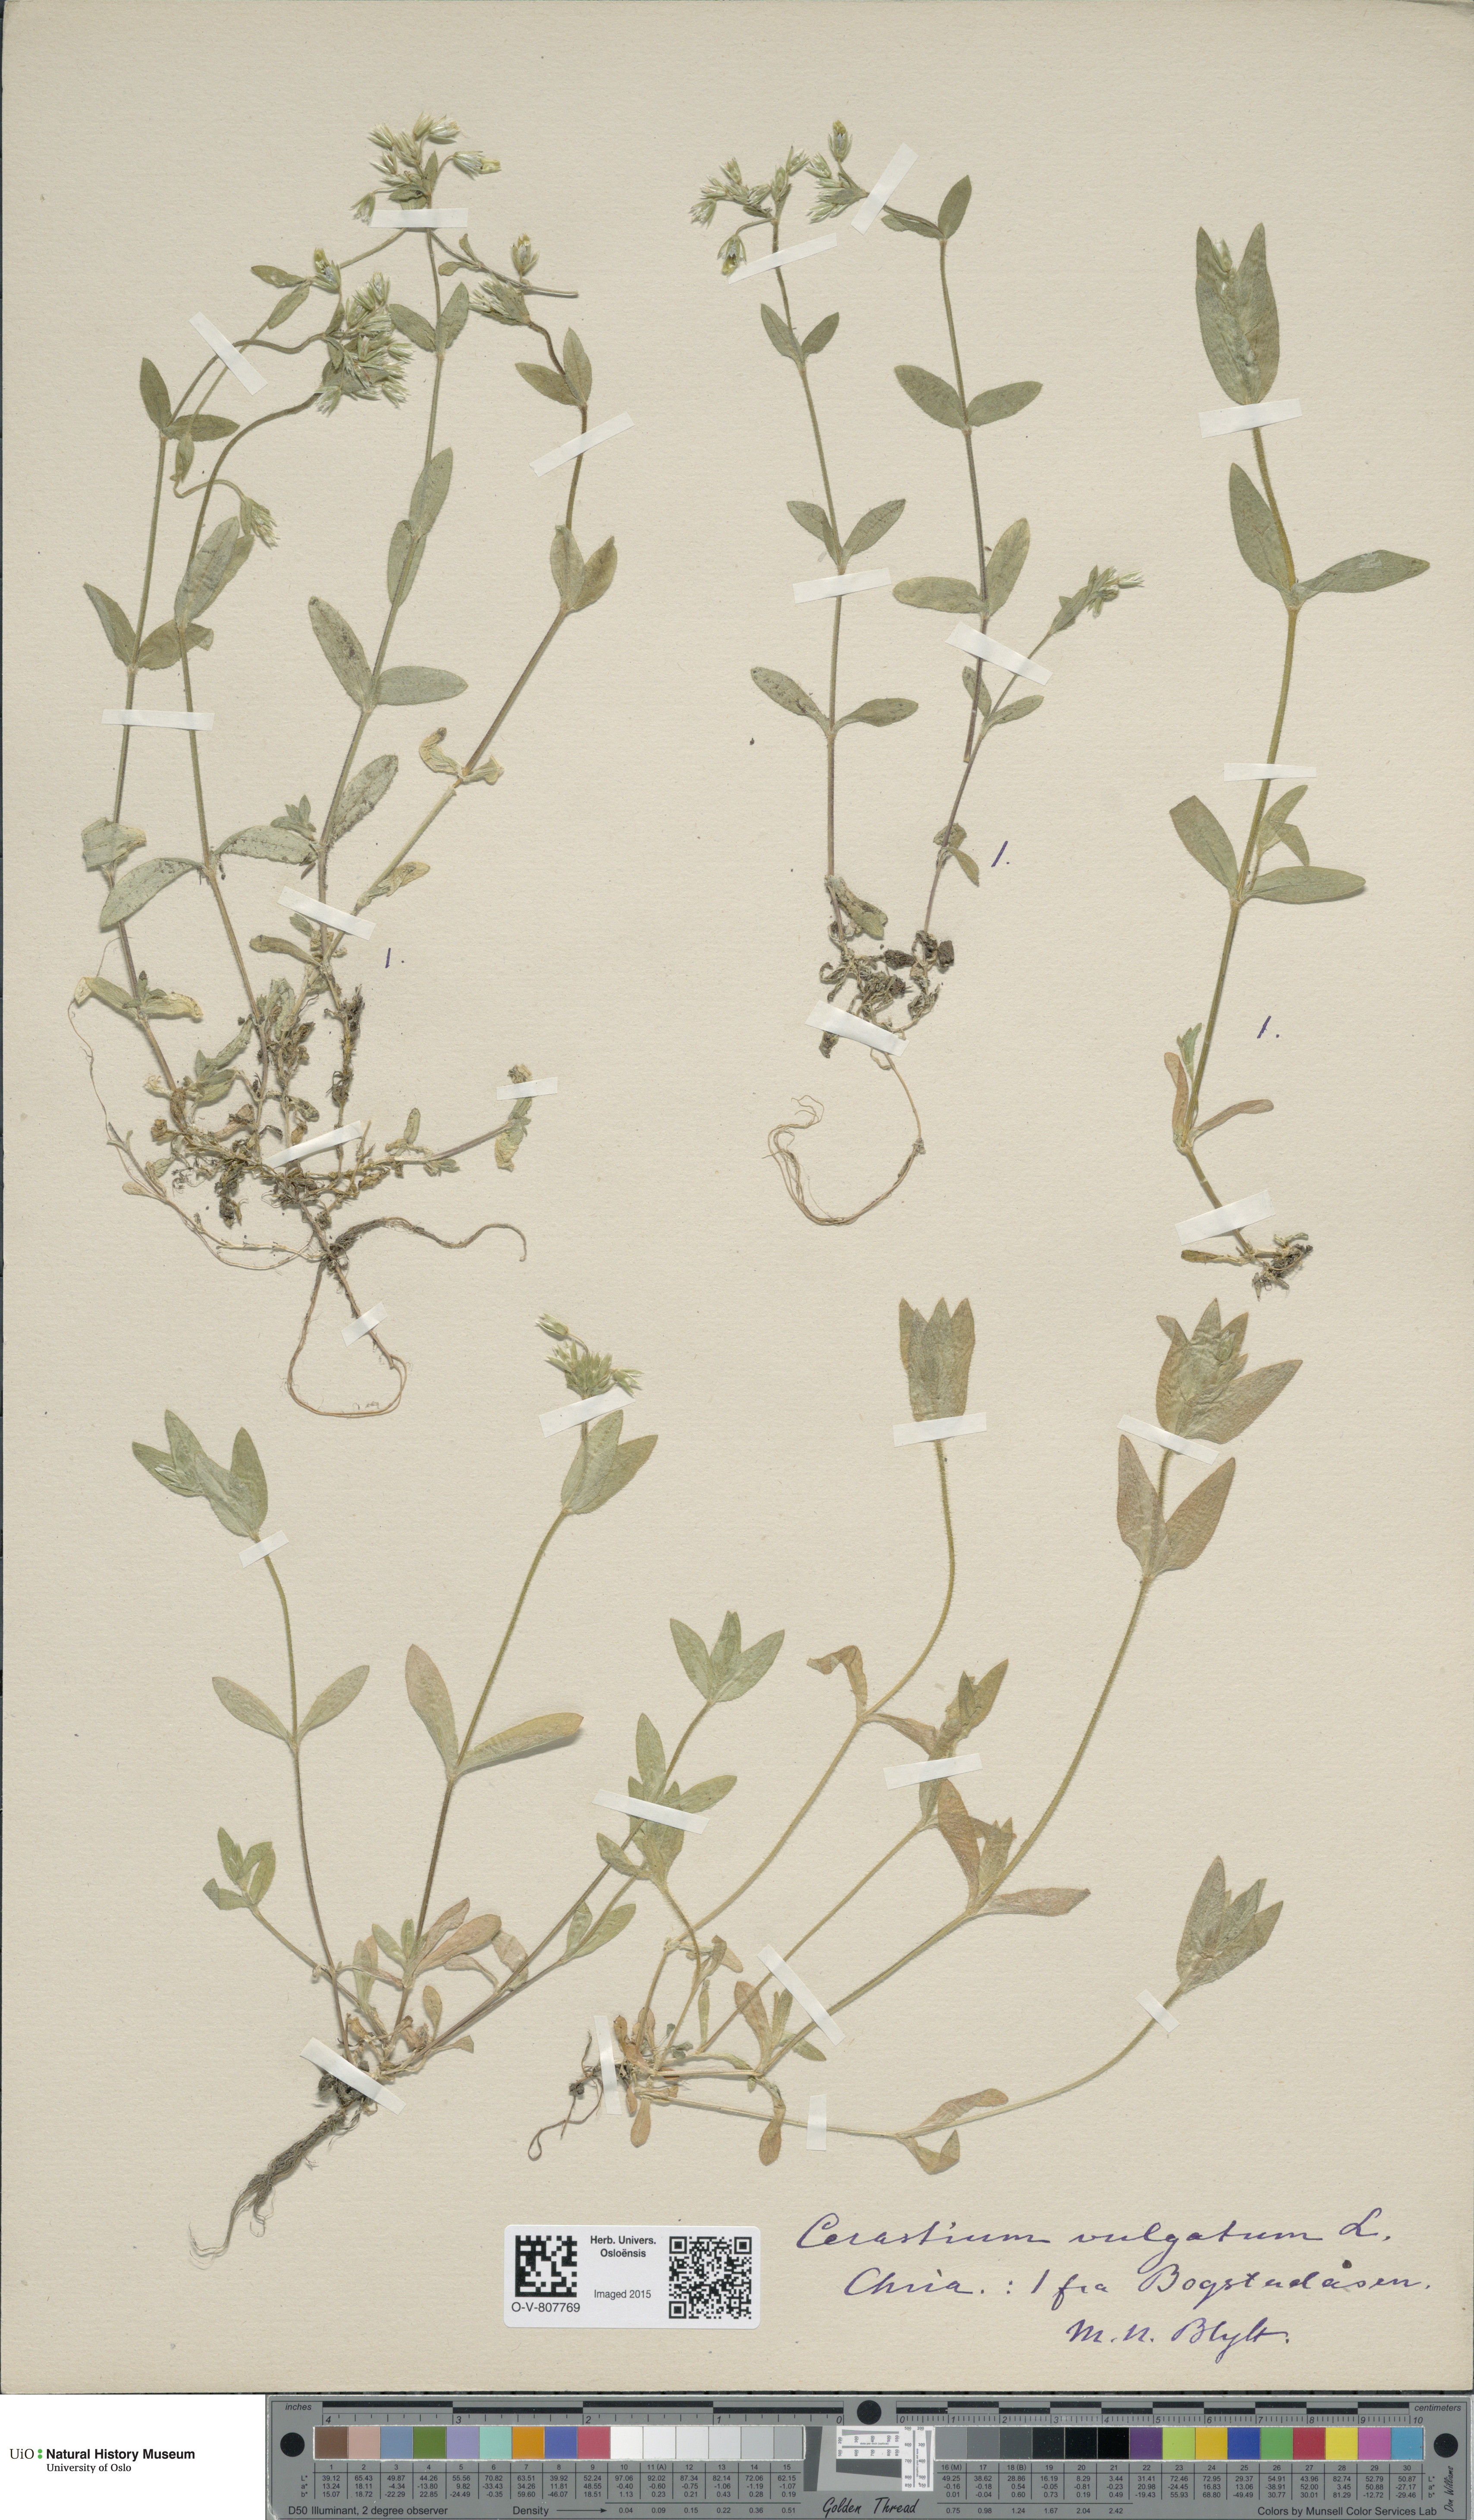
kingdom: Plantae
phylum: Tracheophyta
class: Magnoliopsida
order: Caryophyllales
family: Caryophyllaceae
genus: Cerastium
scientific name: Cerastium holosteoides
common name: Big chickweed
